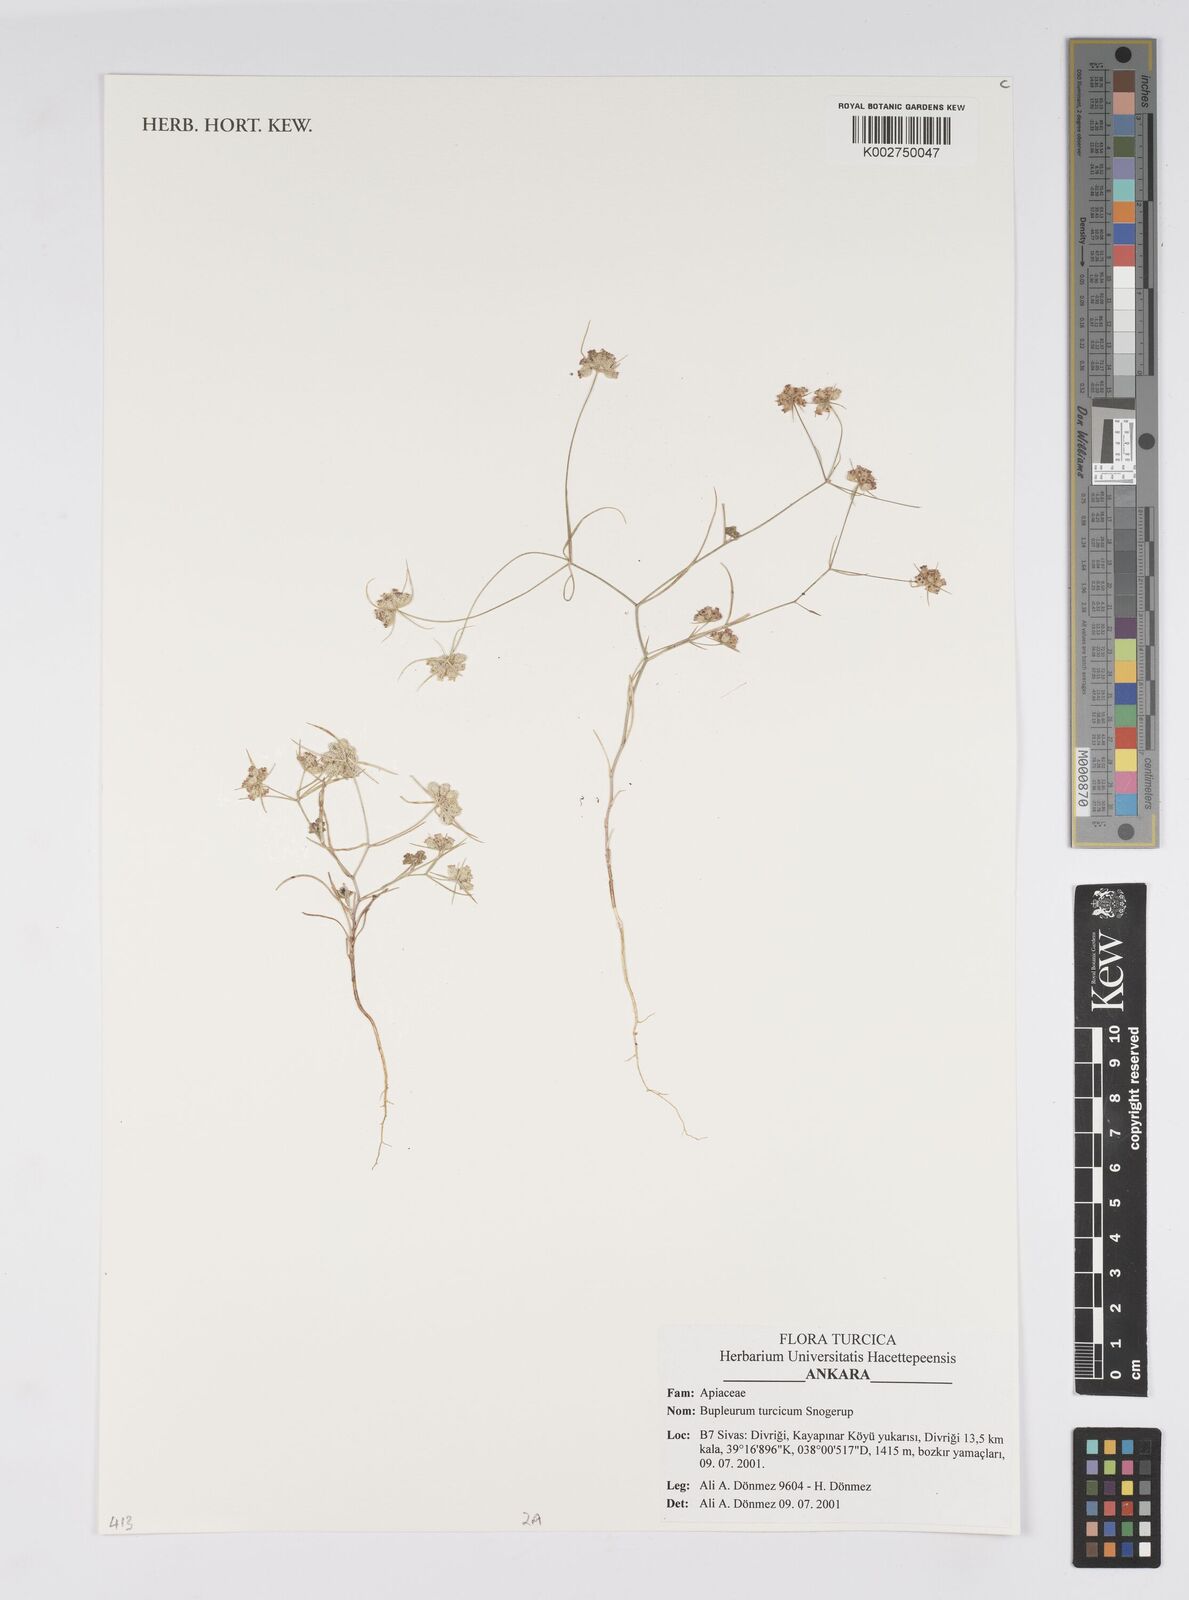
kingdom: Plantae
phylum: Tracheophyta
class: Magnoliopsida
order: Apiales
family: Apiaceae
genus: Bupleurum
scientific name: Bupleurum turcicum
